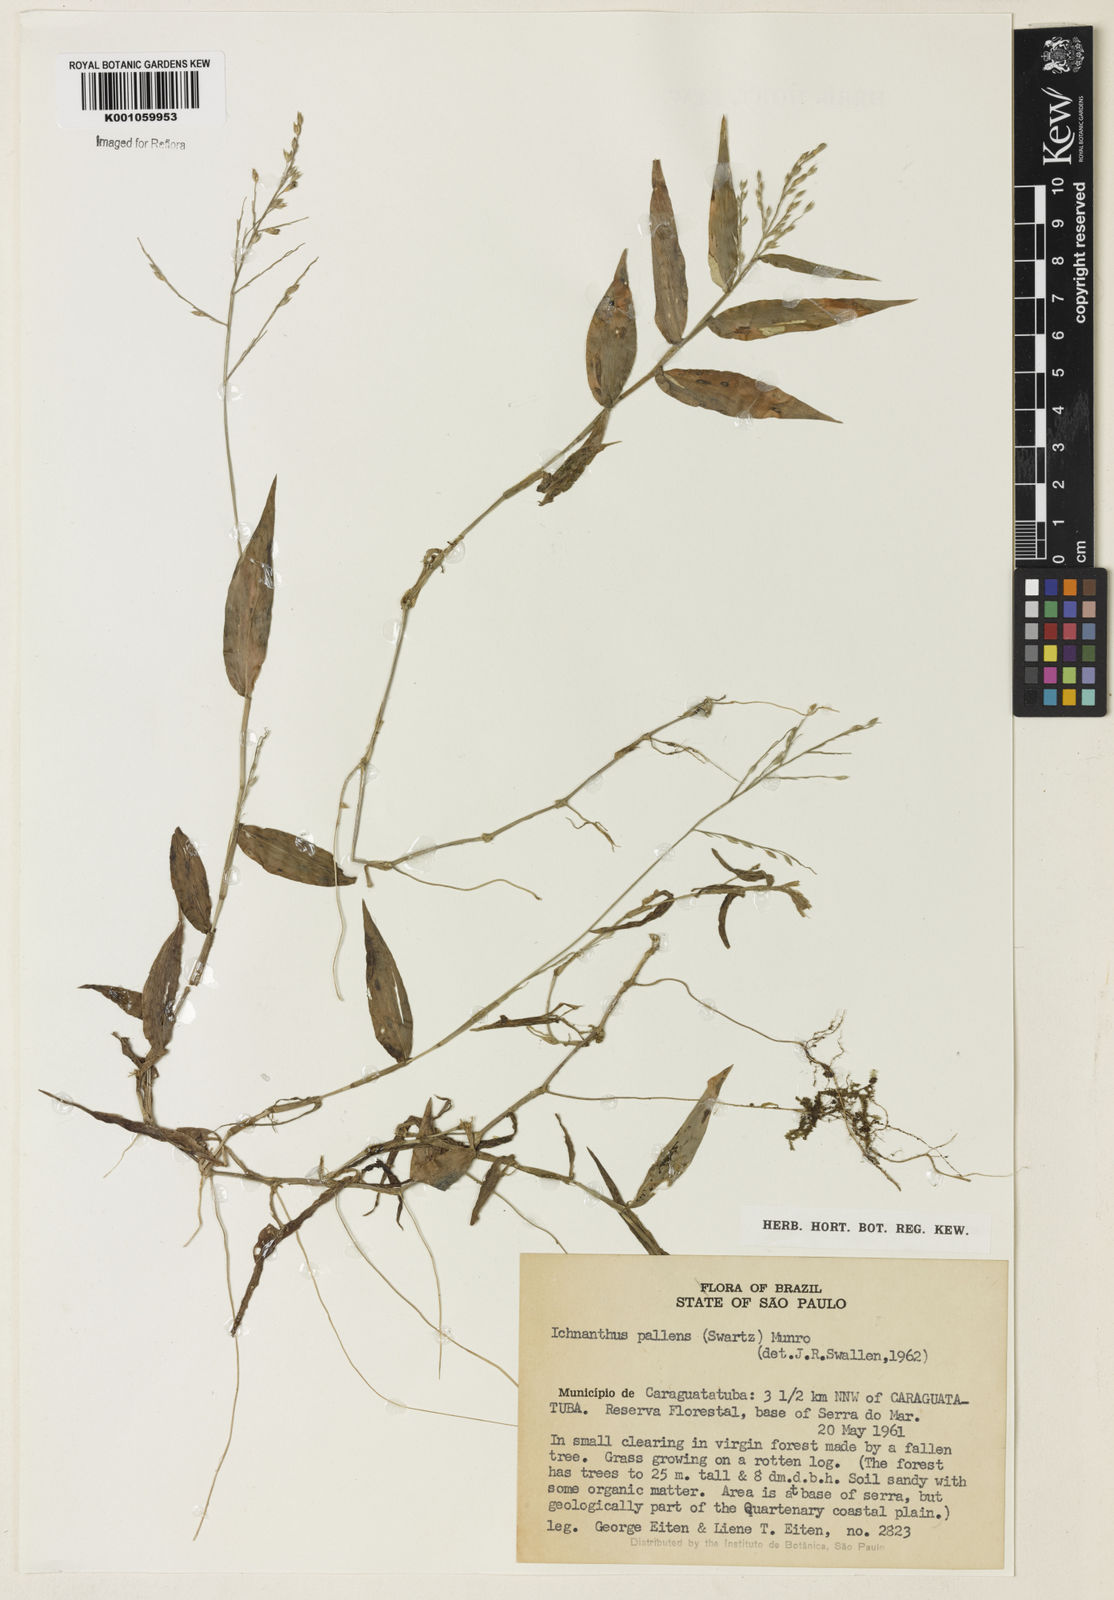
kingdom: Plantae
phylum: Tracheophyta
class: Liliopsida
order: Poales
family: Poaceae
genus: Ichnanthus
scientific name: Ichnanthus pallens
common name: Water grass
